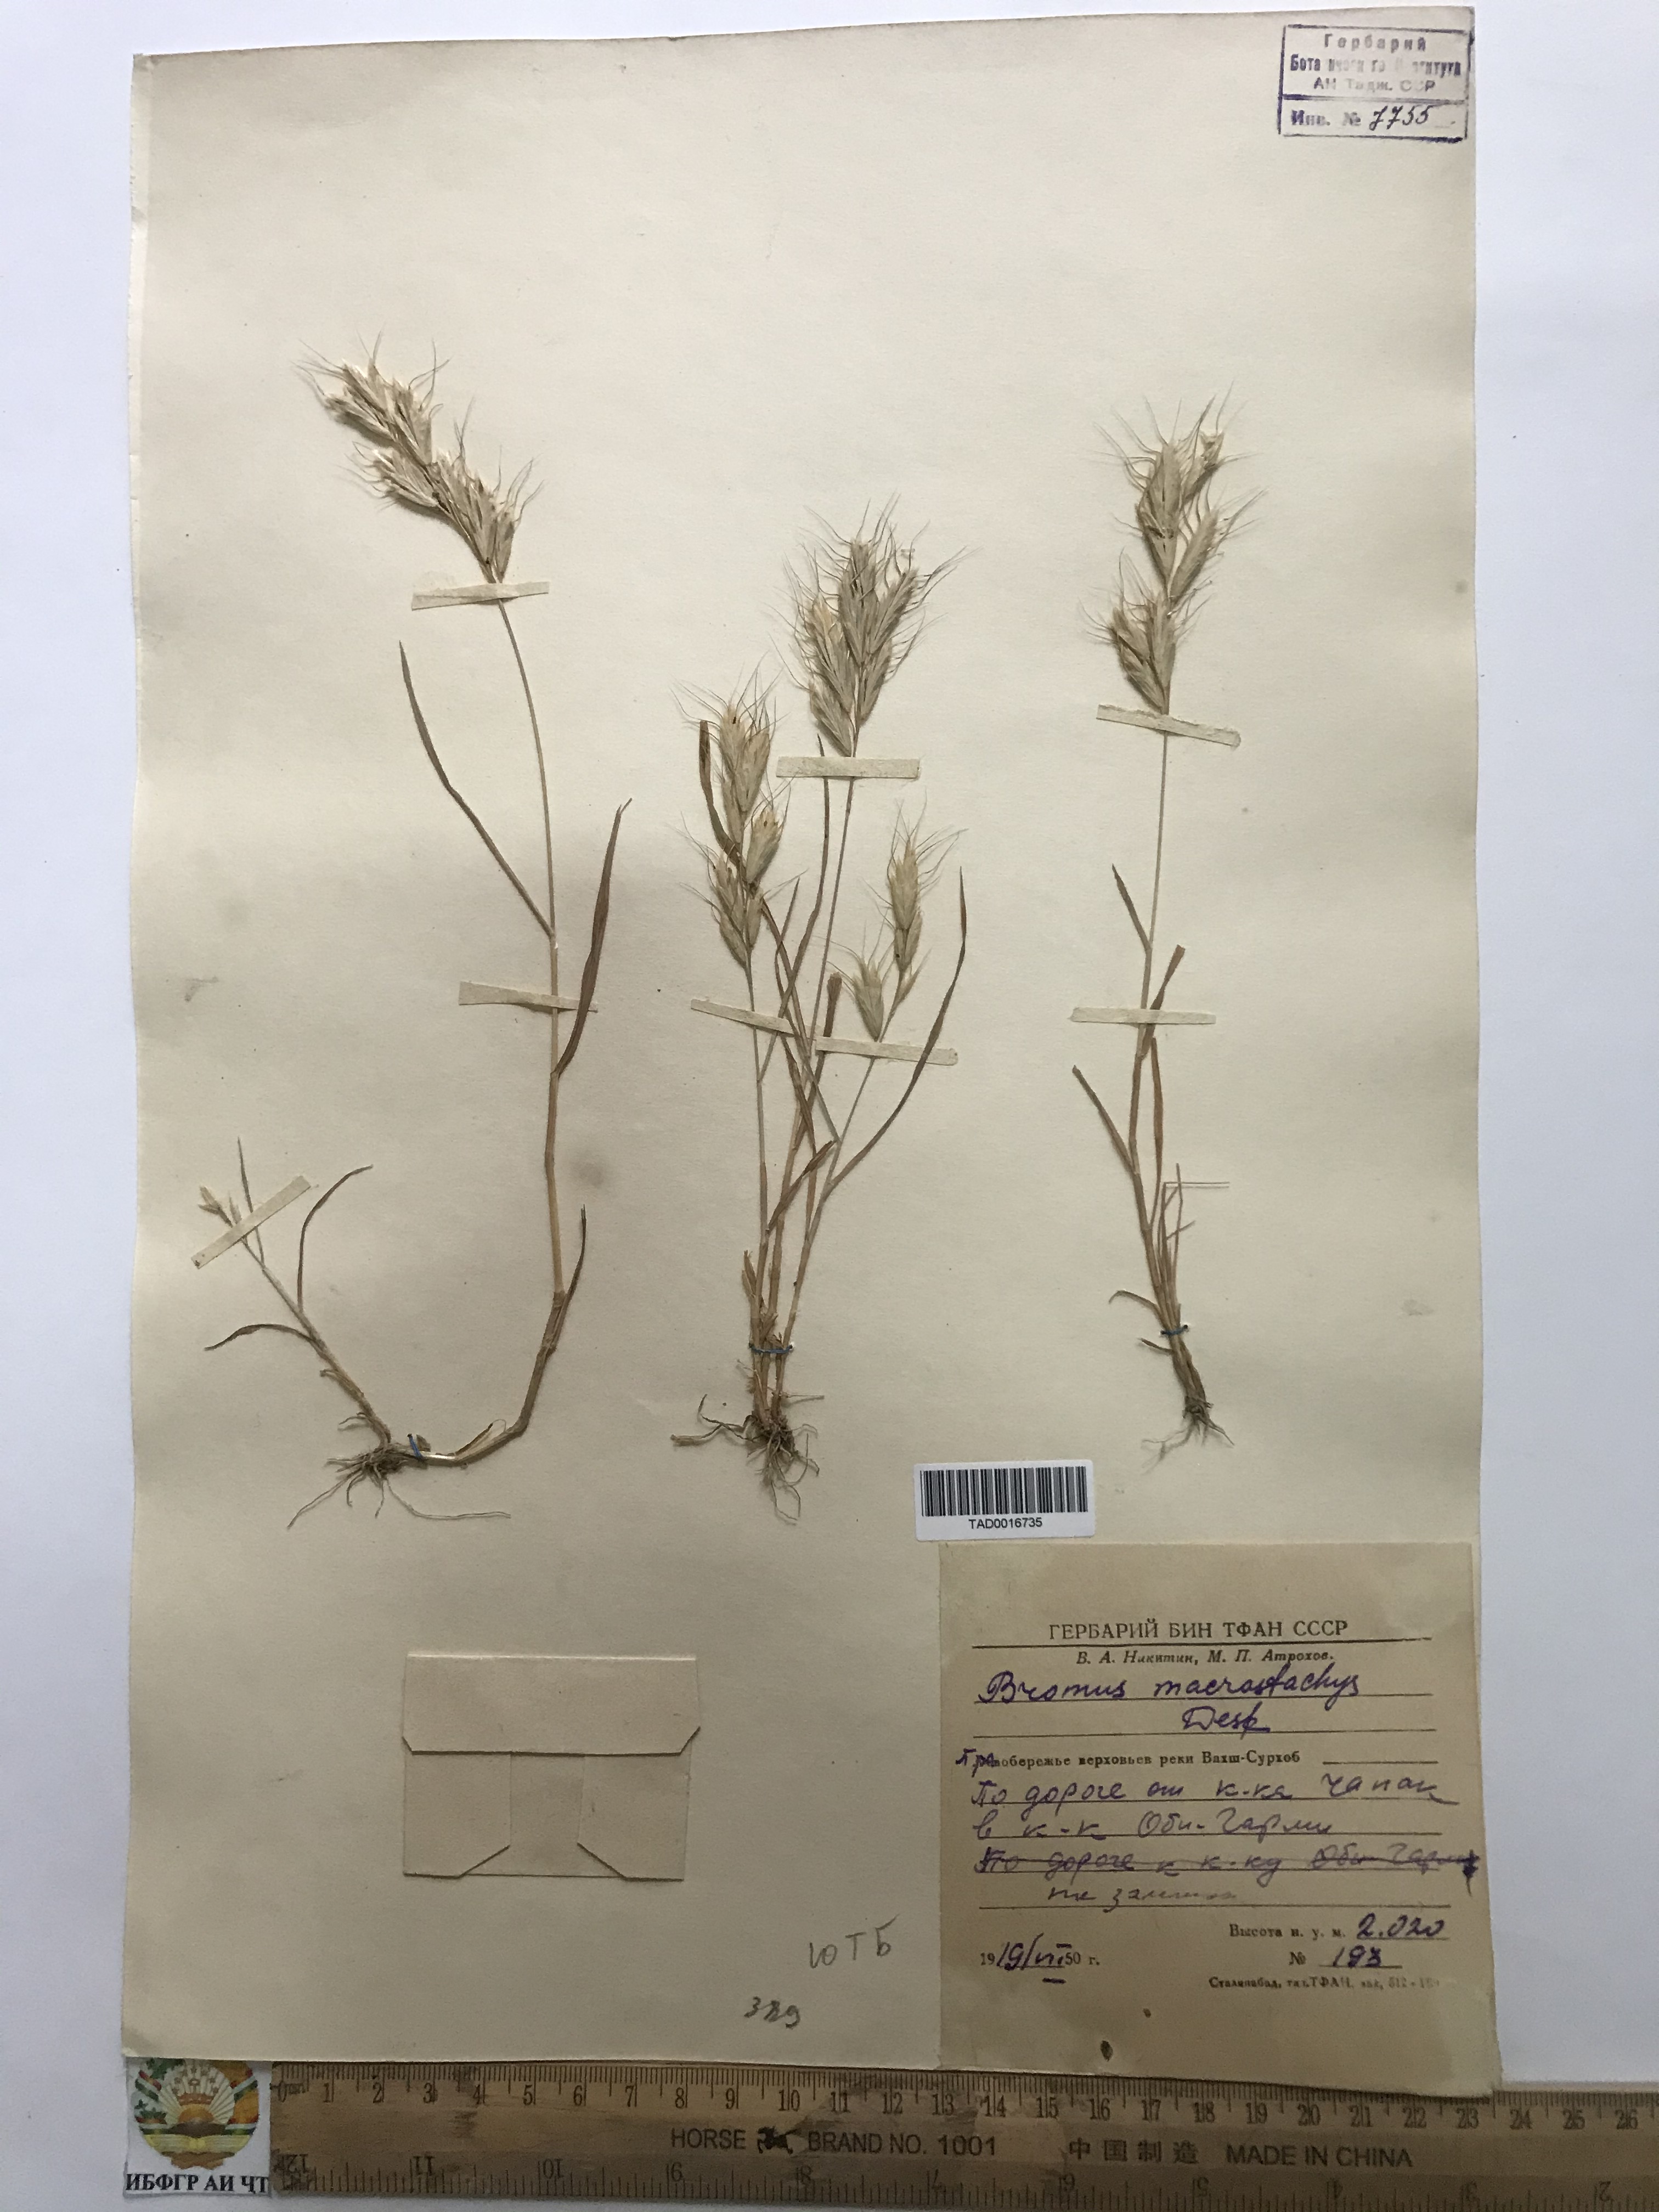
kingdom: Plantae
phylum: Tracheophyta
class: Liliopsida
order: Poales
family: Poaceae
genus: Bromus
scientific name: Bromus lanceolatus
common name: Mediterranean brome
